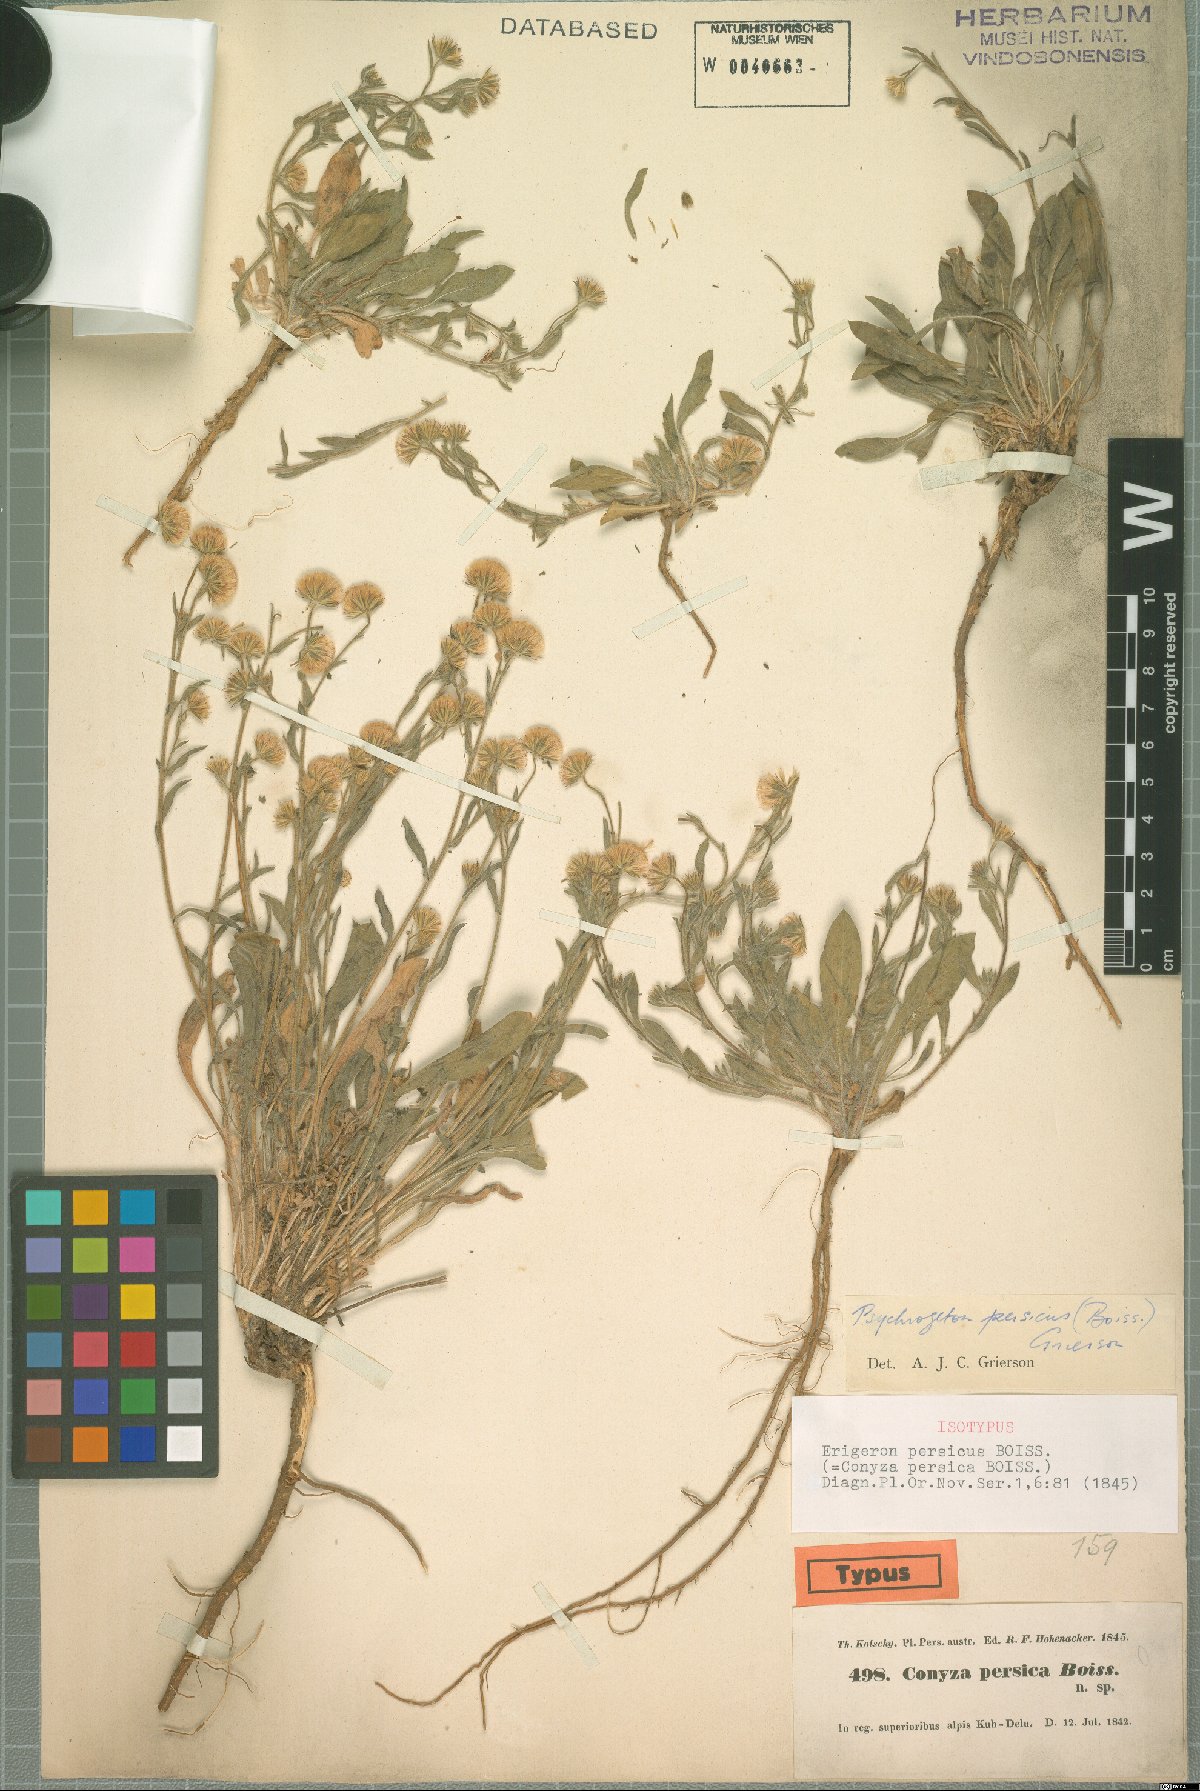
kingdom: Plantae
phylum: Tracheophyta
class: Magnoliopsida
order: Asterales
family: Asteraceae
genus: Psychrogeton
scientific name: Psychrogeton persicus
